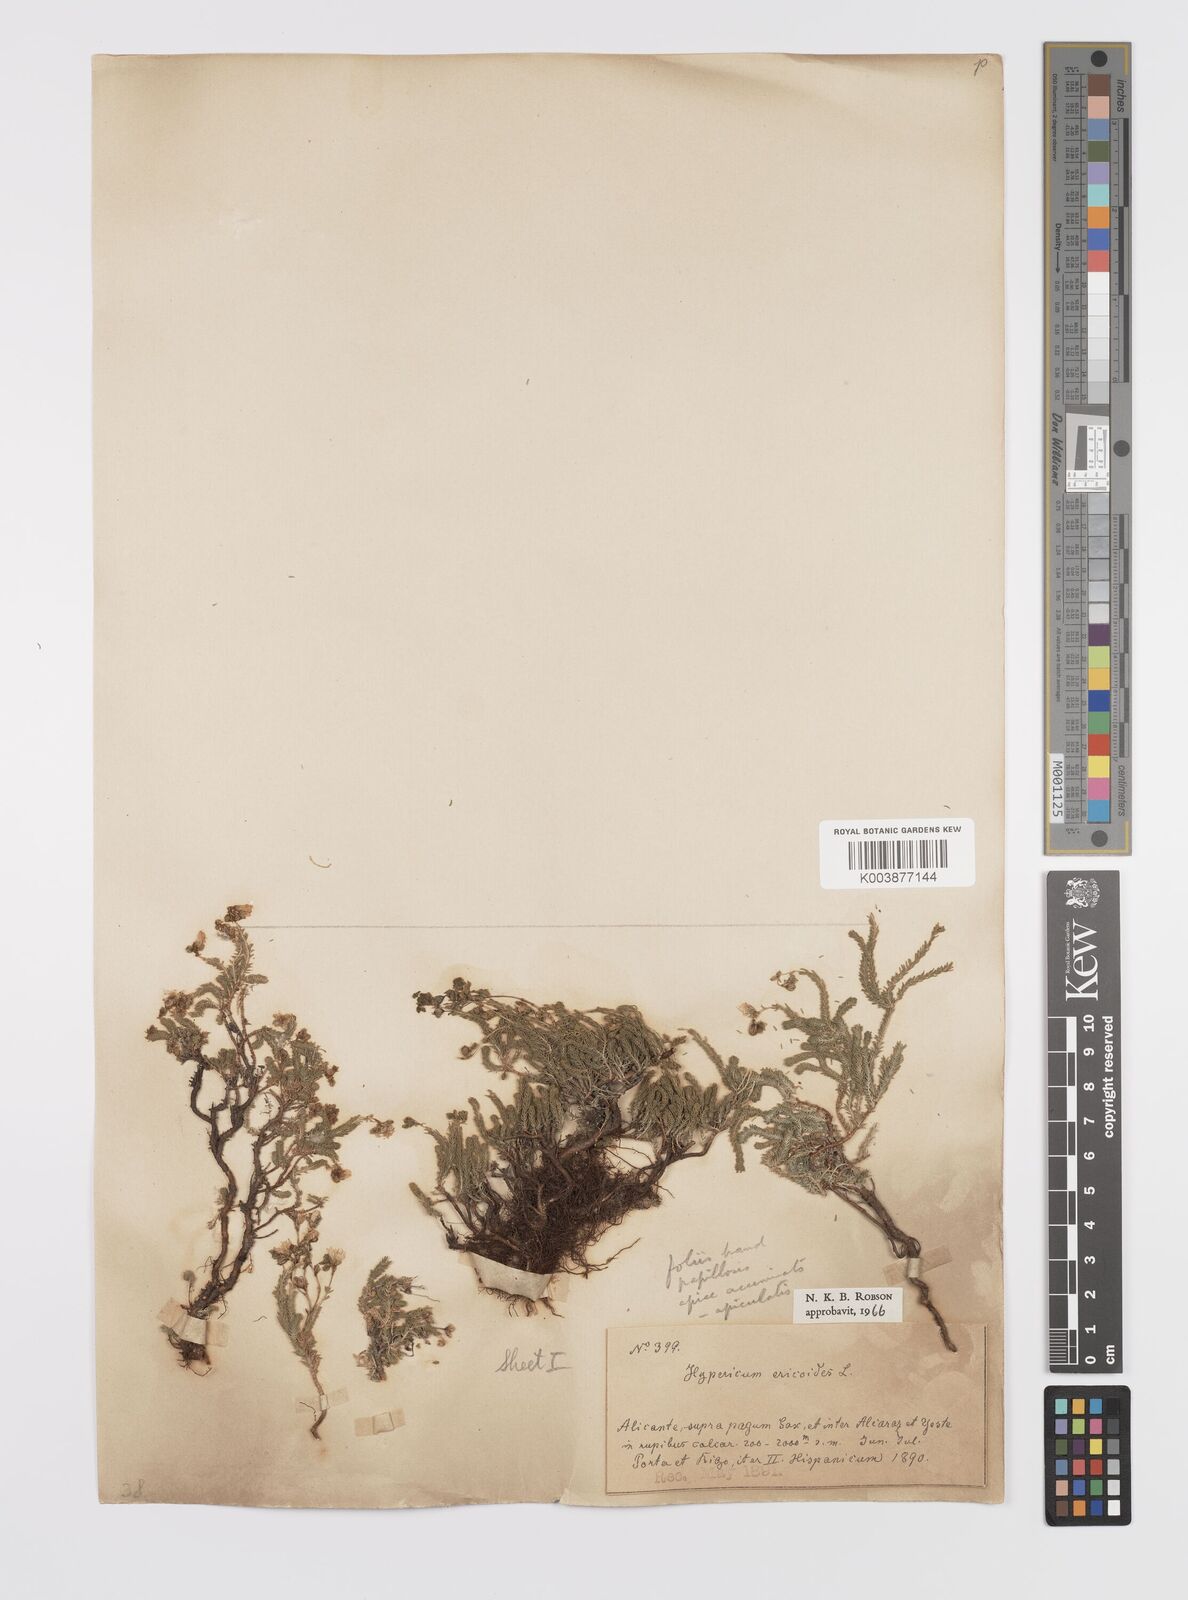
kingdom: Plantae
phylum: Tracheophyta
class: Magnoliopsida
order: Malpighiales
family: Hypericaceae
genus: Hypericum
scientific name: Hypericum ericoides
